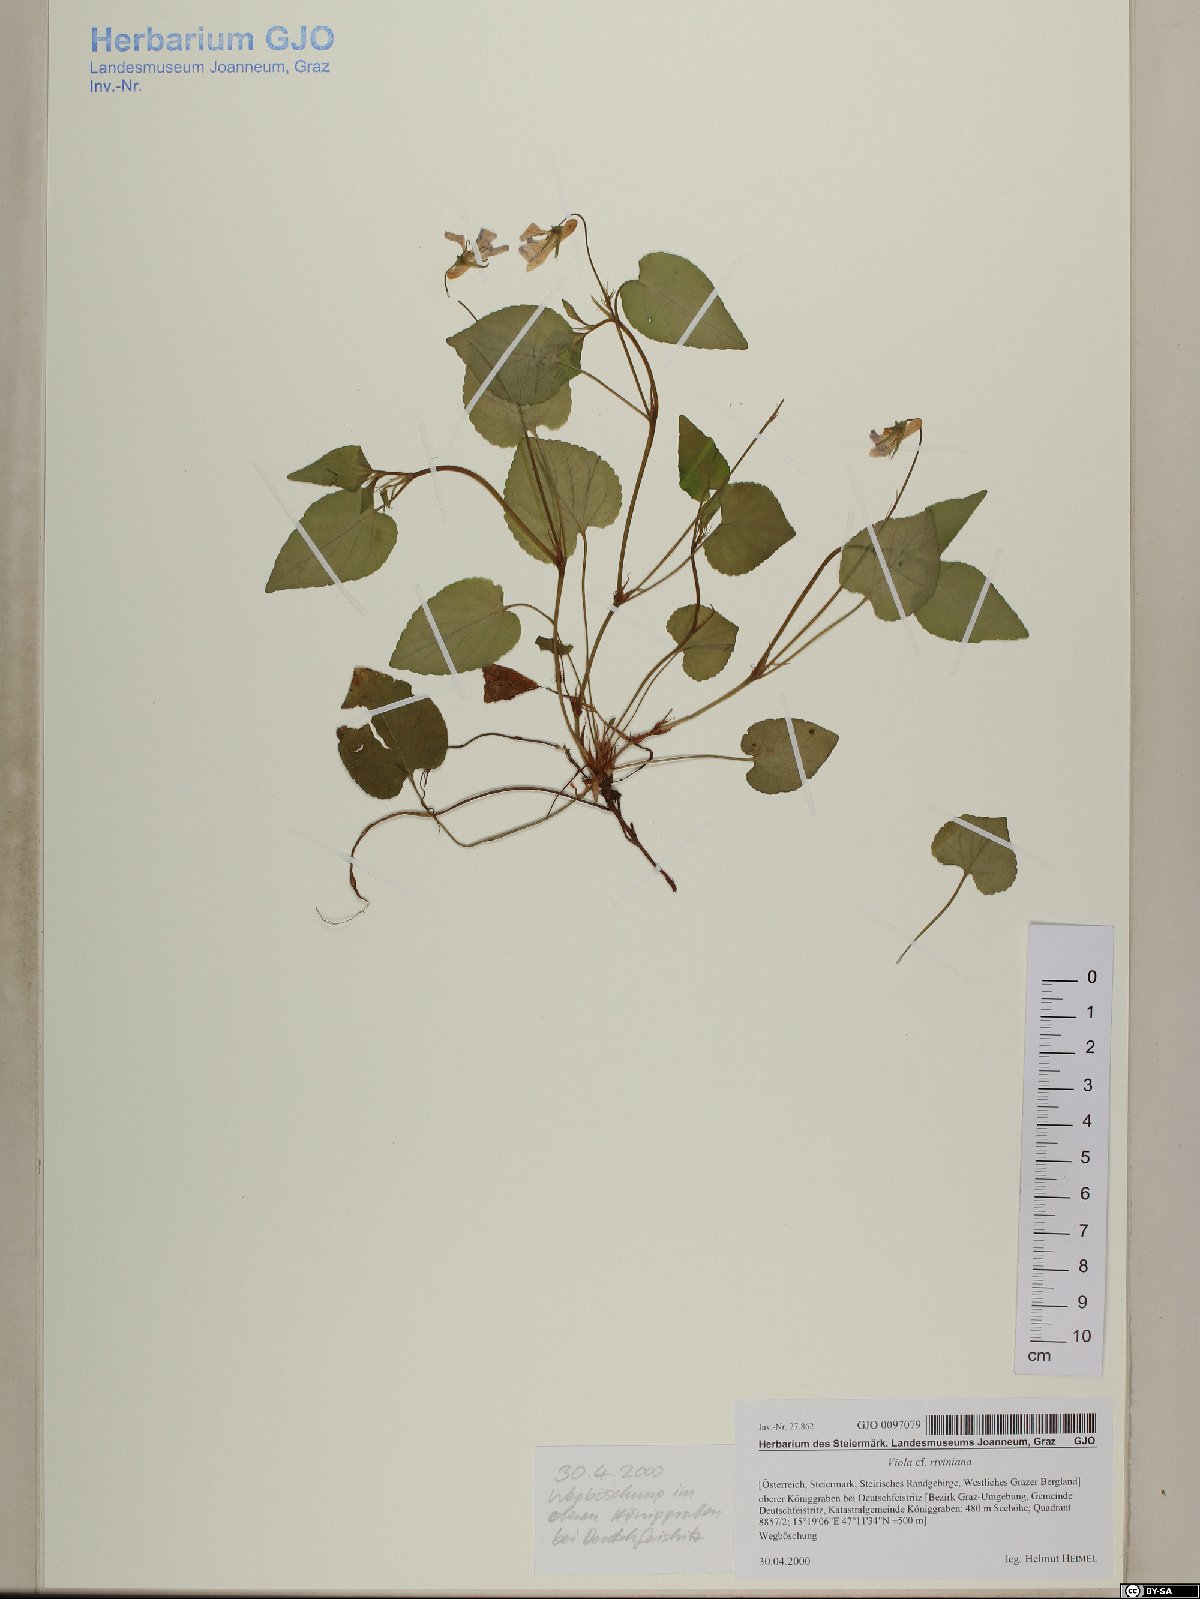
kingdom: Plantae
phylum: Tracheophyta
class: Magnoliopsida
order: Malpighiales
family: Violaceae
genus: Viola
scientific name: Viola riviniana
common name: Common dog-violet
